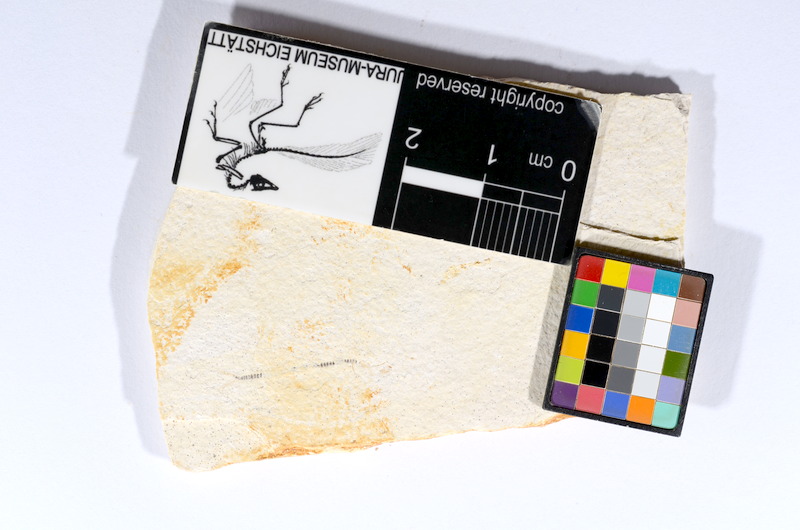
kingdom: Animalia
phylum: Chordata
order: Salmoniformes
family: Orthogonikleithridae
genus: Orthogonikleithrus
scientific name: Orthogonikleithrus hoelli
